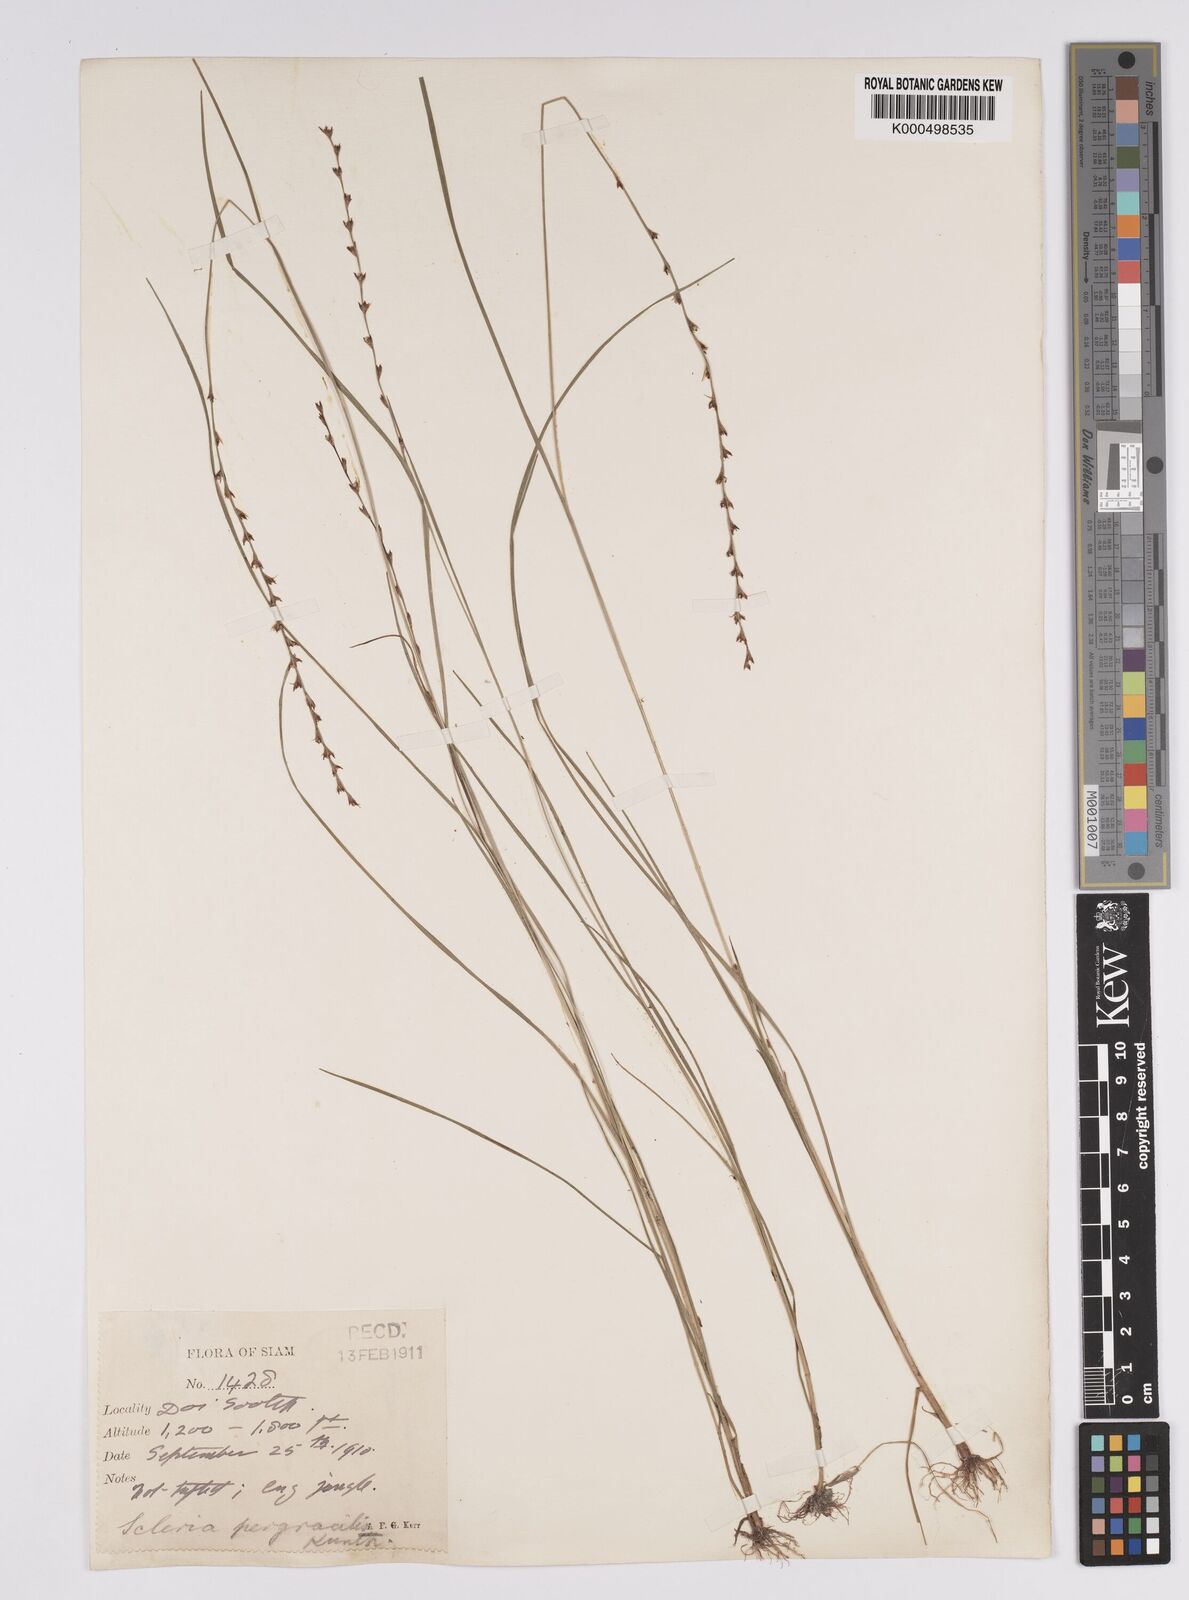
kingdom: Plantae
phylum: Tracheophyta
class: Liliopsida
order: Poales
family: Cyperaceae
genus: Scleria
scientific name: Scleria pergracilis
